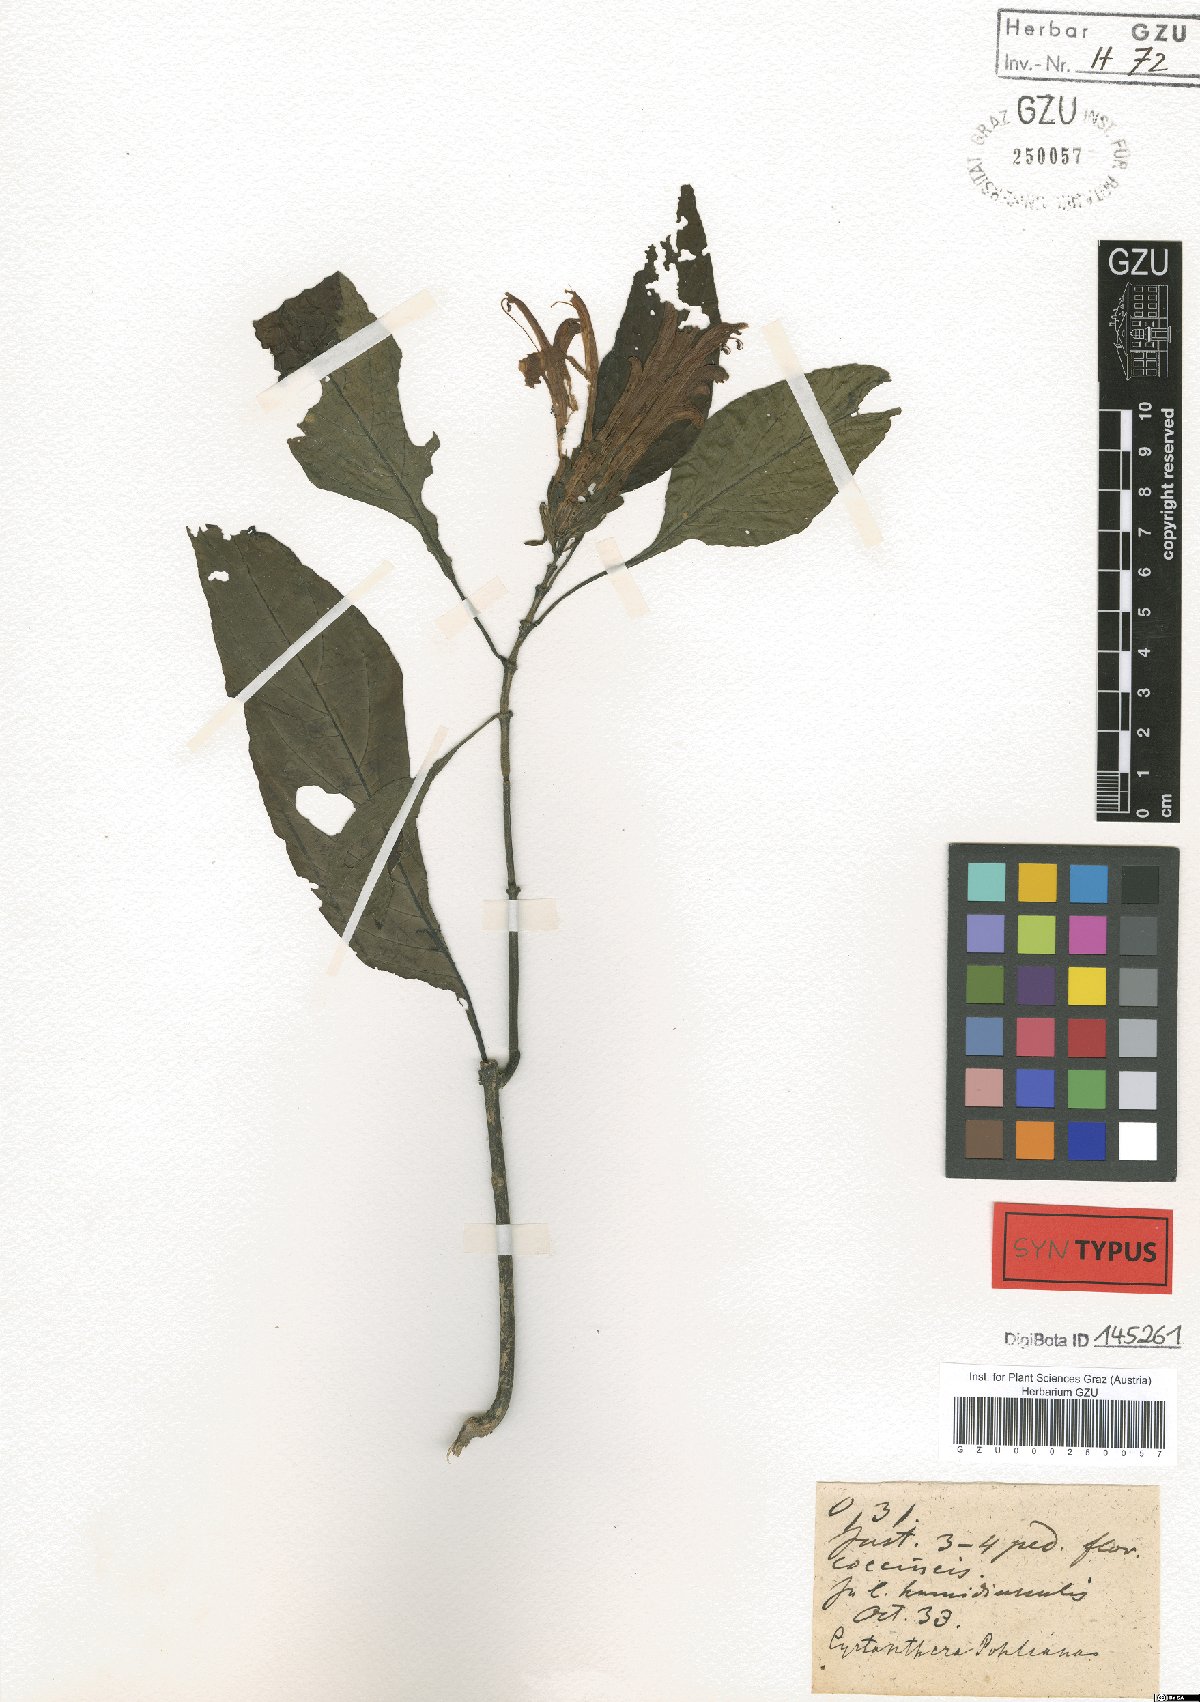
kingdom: Plantae
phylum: Tracheophyta
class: Magnoliopsida
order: Lamiales
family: Acanthaceae
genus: Justicia
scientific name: Justicia carnea
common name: Brazilian-plume
